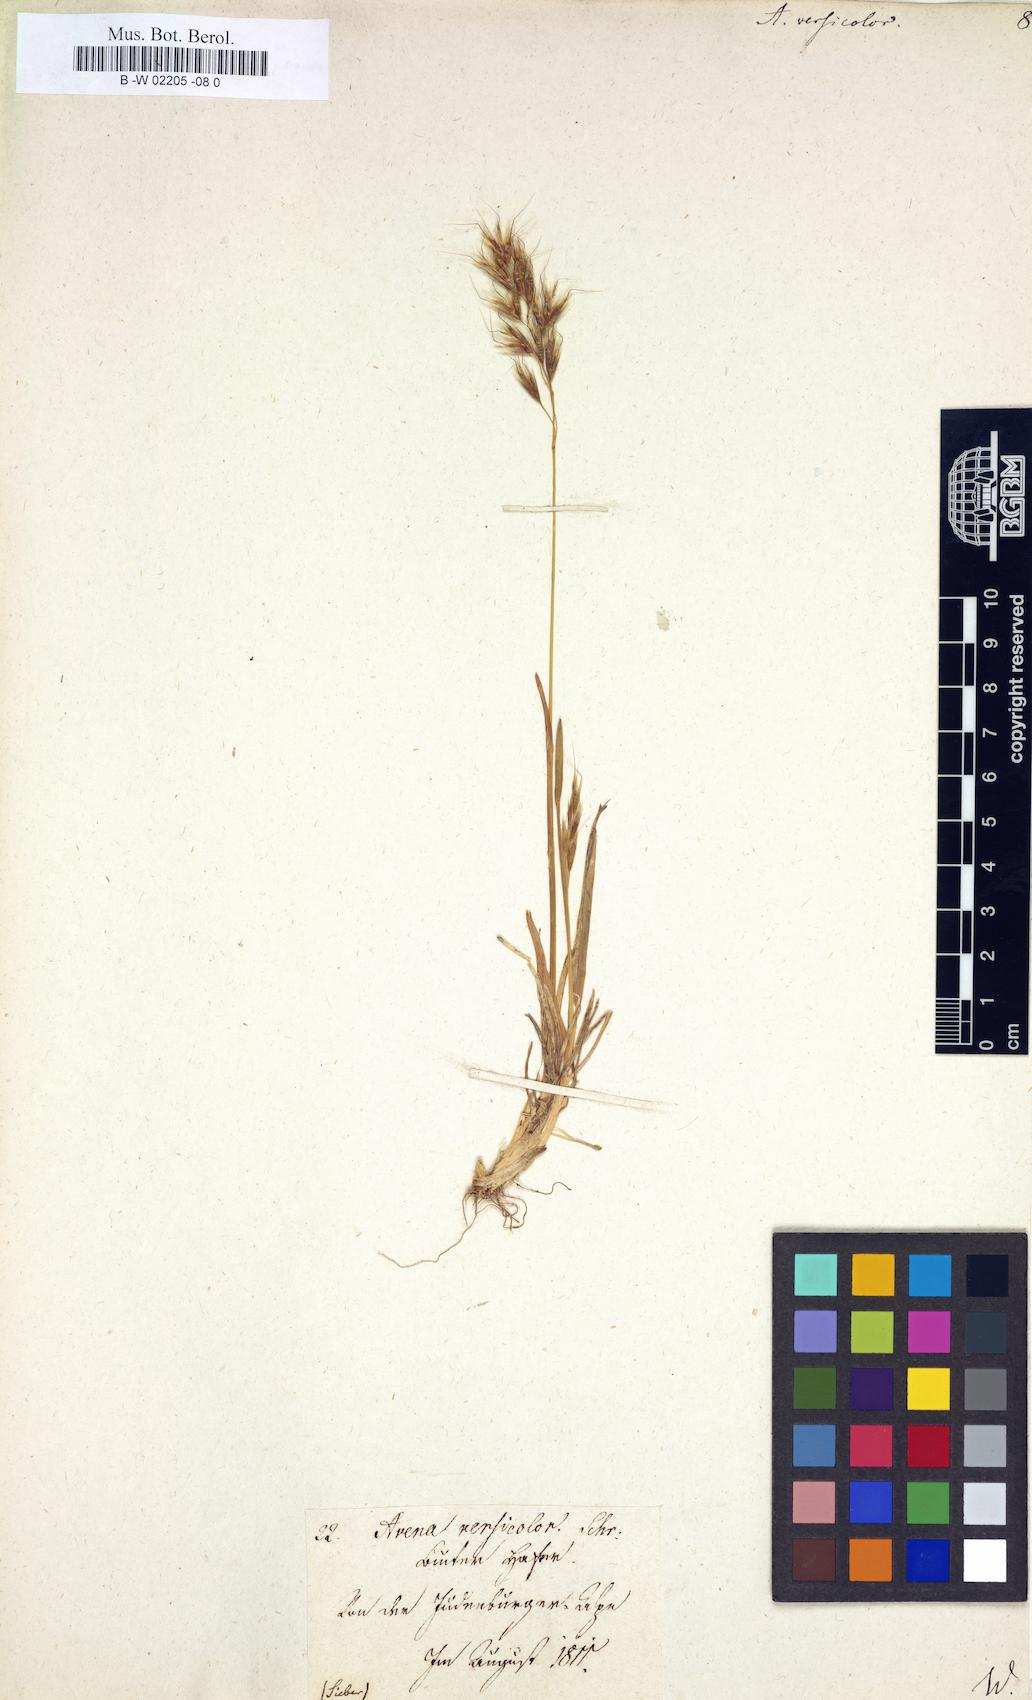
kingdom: Plantae
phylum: Tracheophyta
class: Liliopsida
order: Poales
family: Poaceae
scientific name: Poaceae
